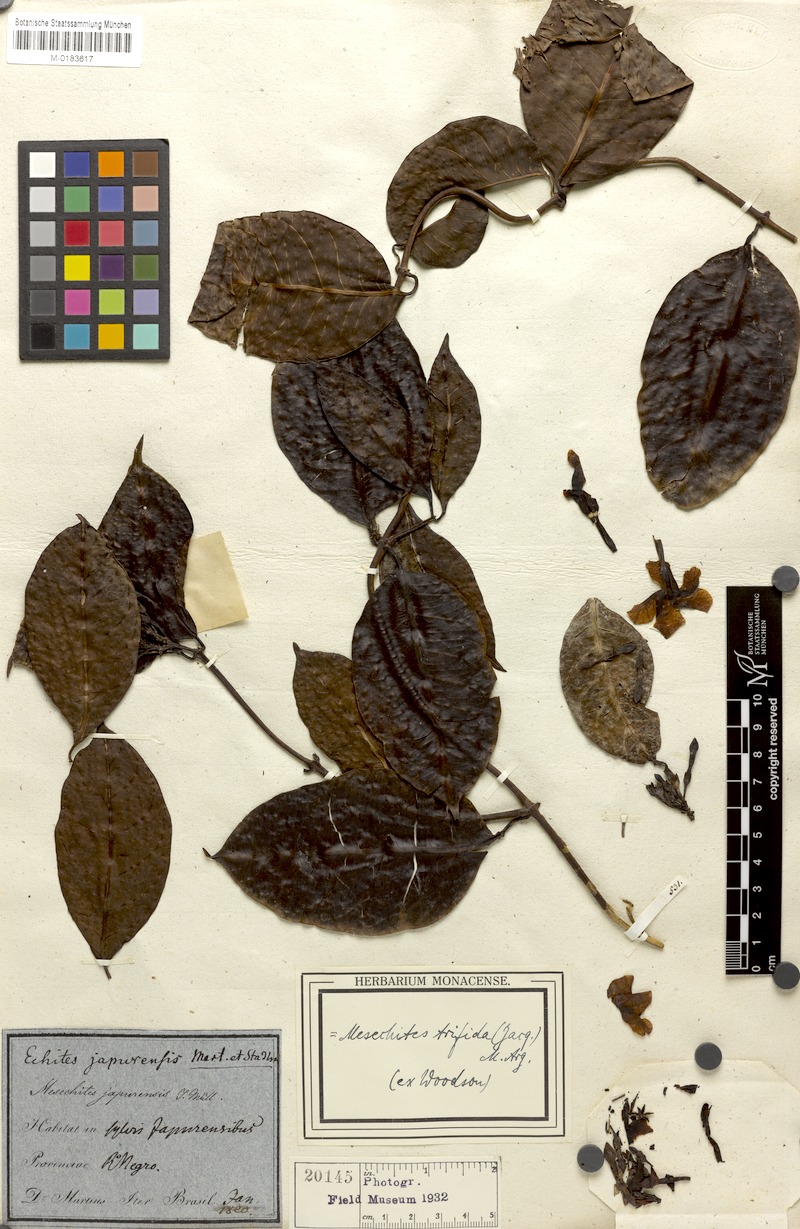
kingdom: Plantae
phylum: Tracheophyta
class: Magnoliopsida
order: Gentianales
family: Apocynaceae
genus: Mesechites
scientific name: Mesechites trifidus
